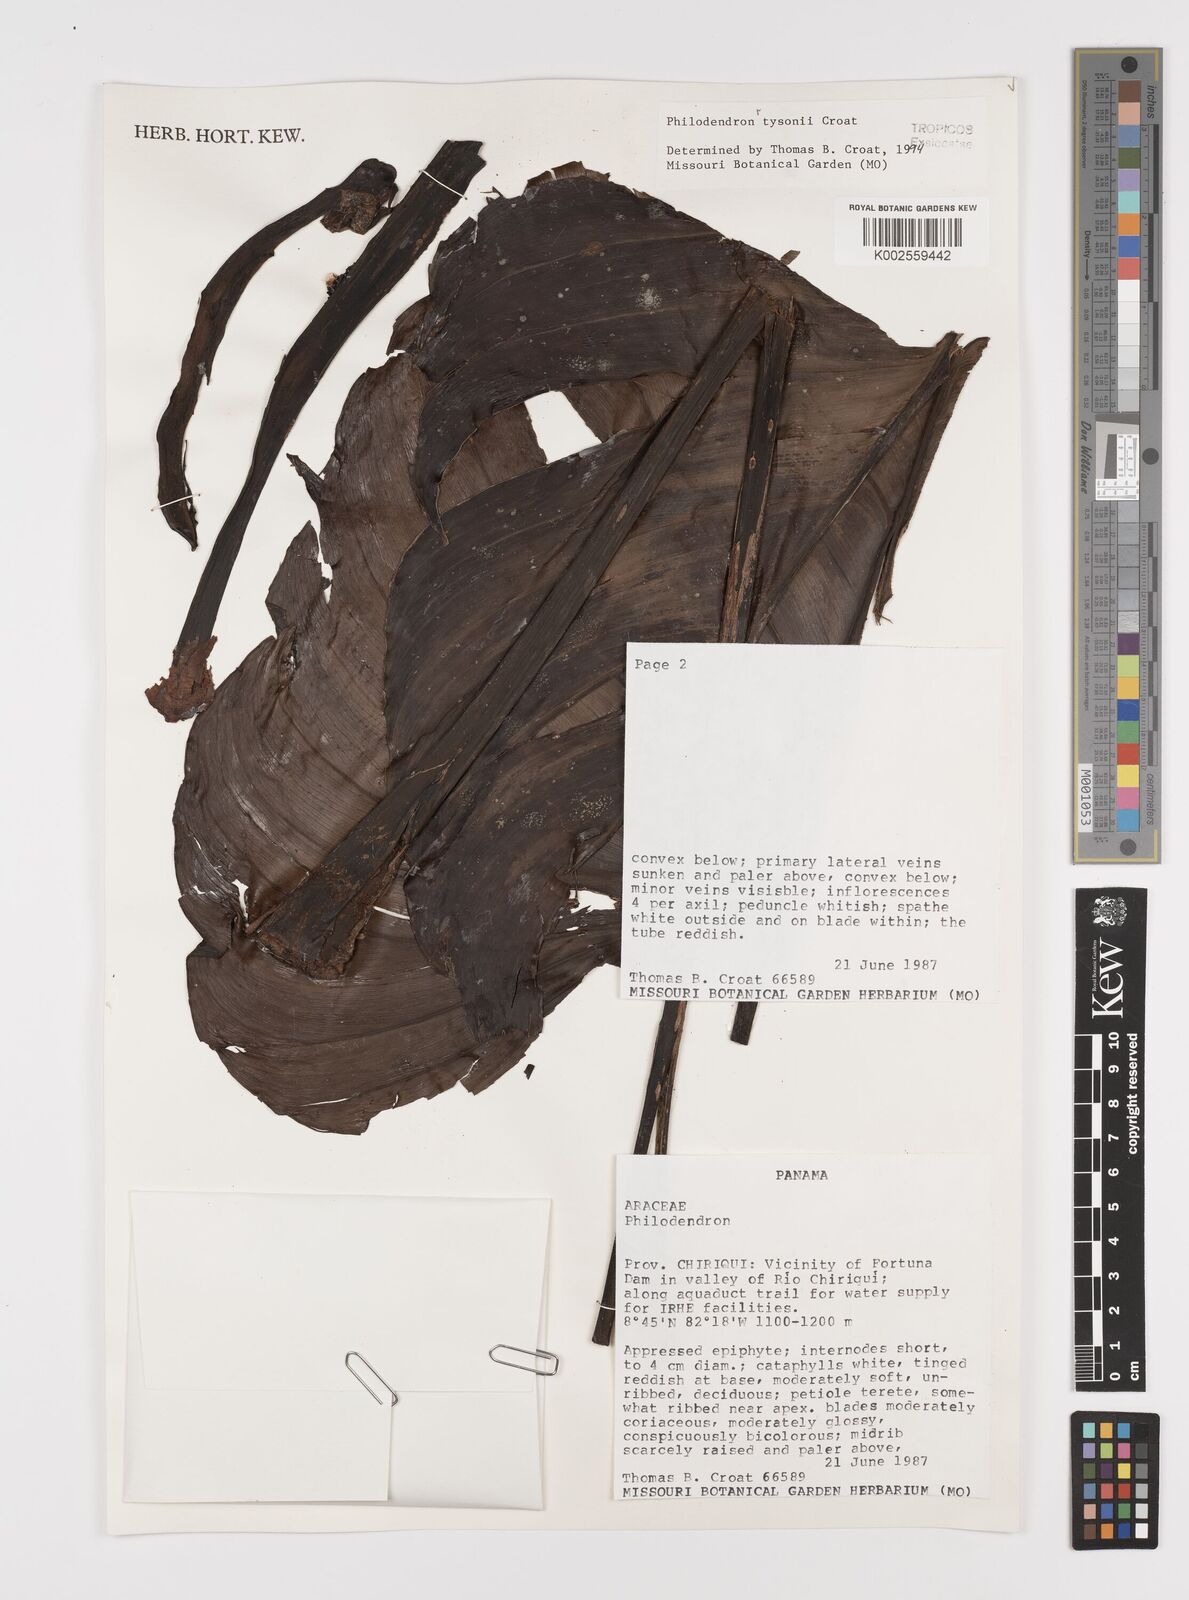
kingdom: Plantae
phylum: Tracheophyta
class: Liliopsida
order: Alismatales
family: Araceae
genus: Philodendron
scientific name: Philodendron tysonii
